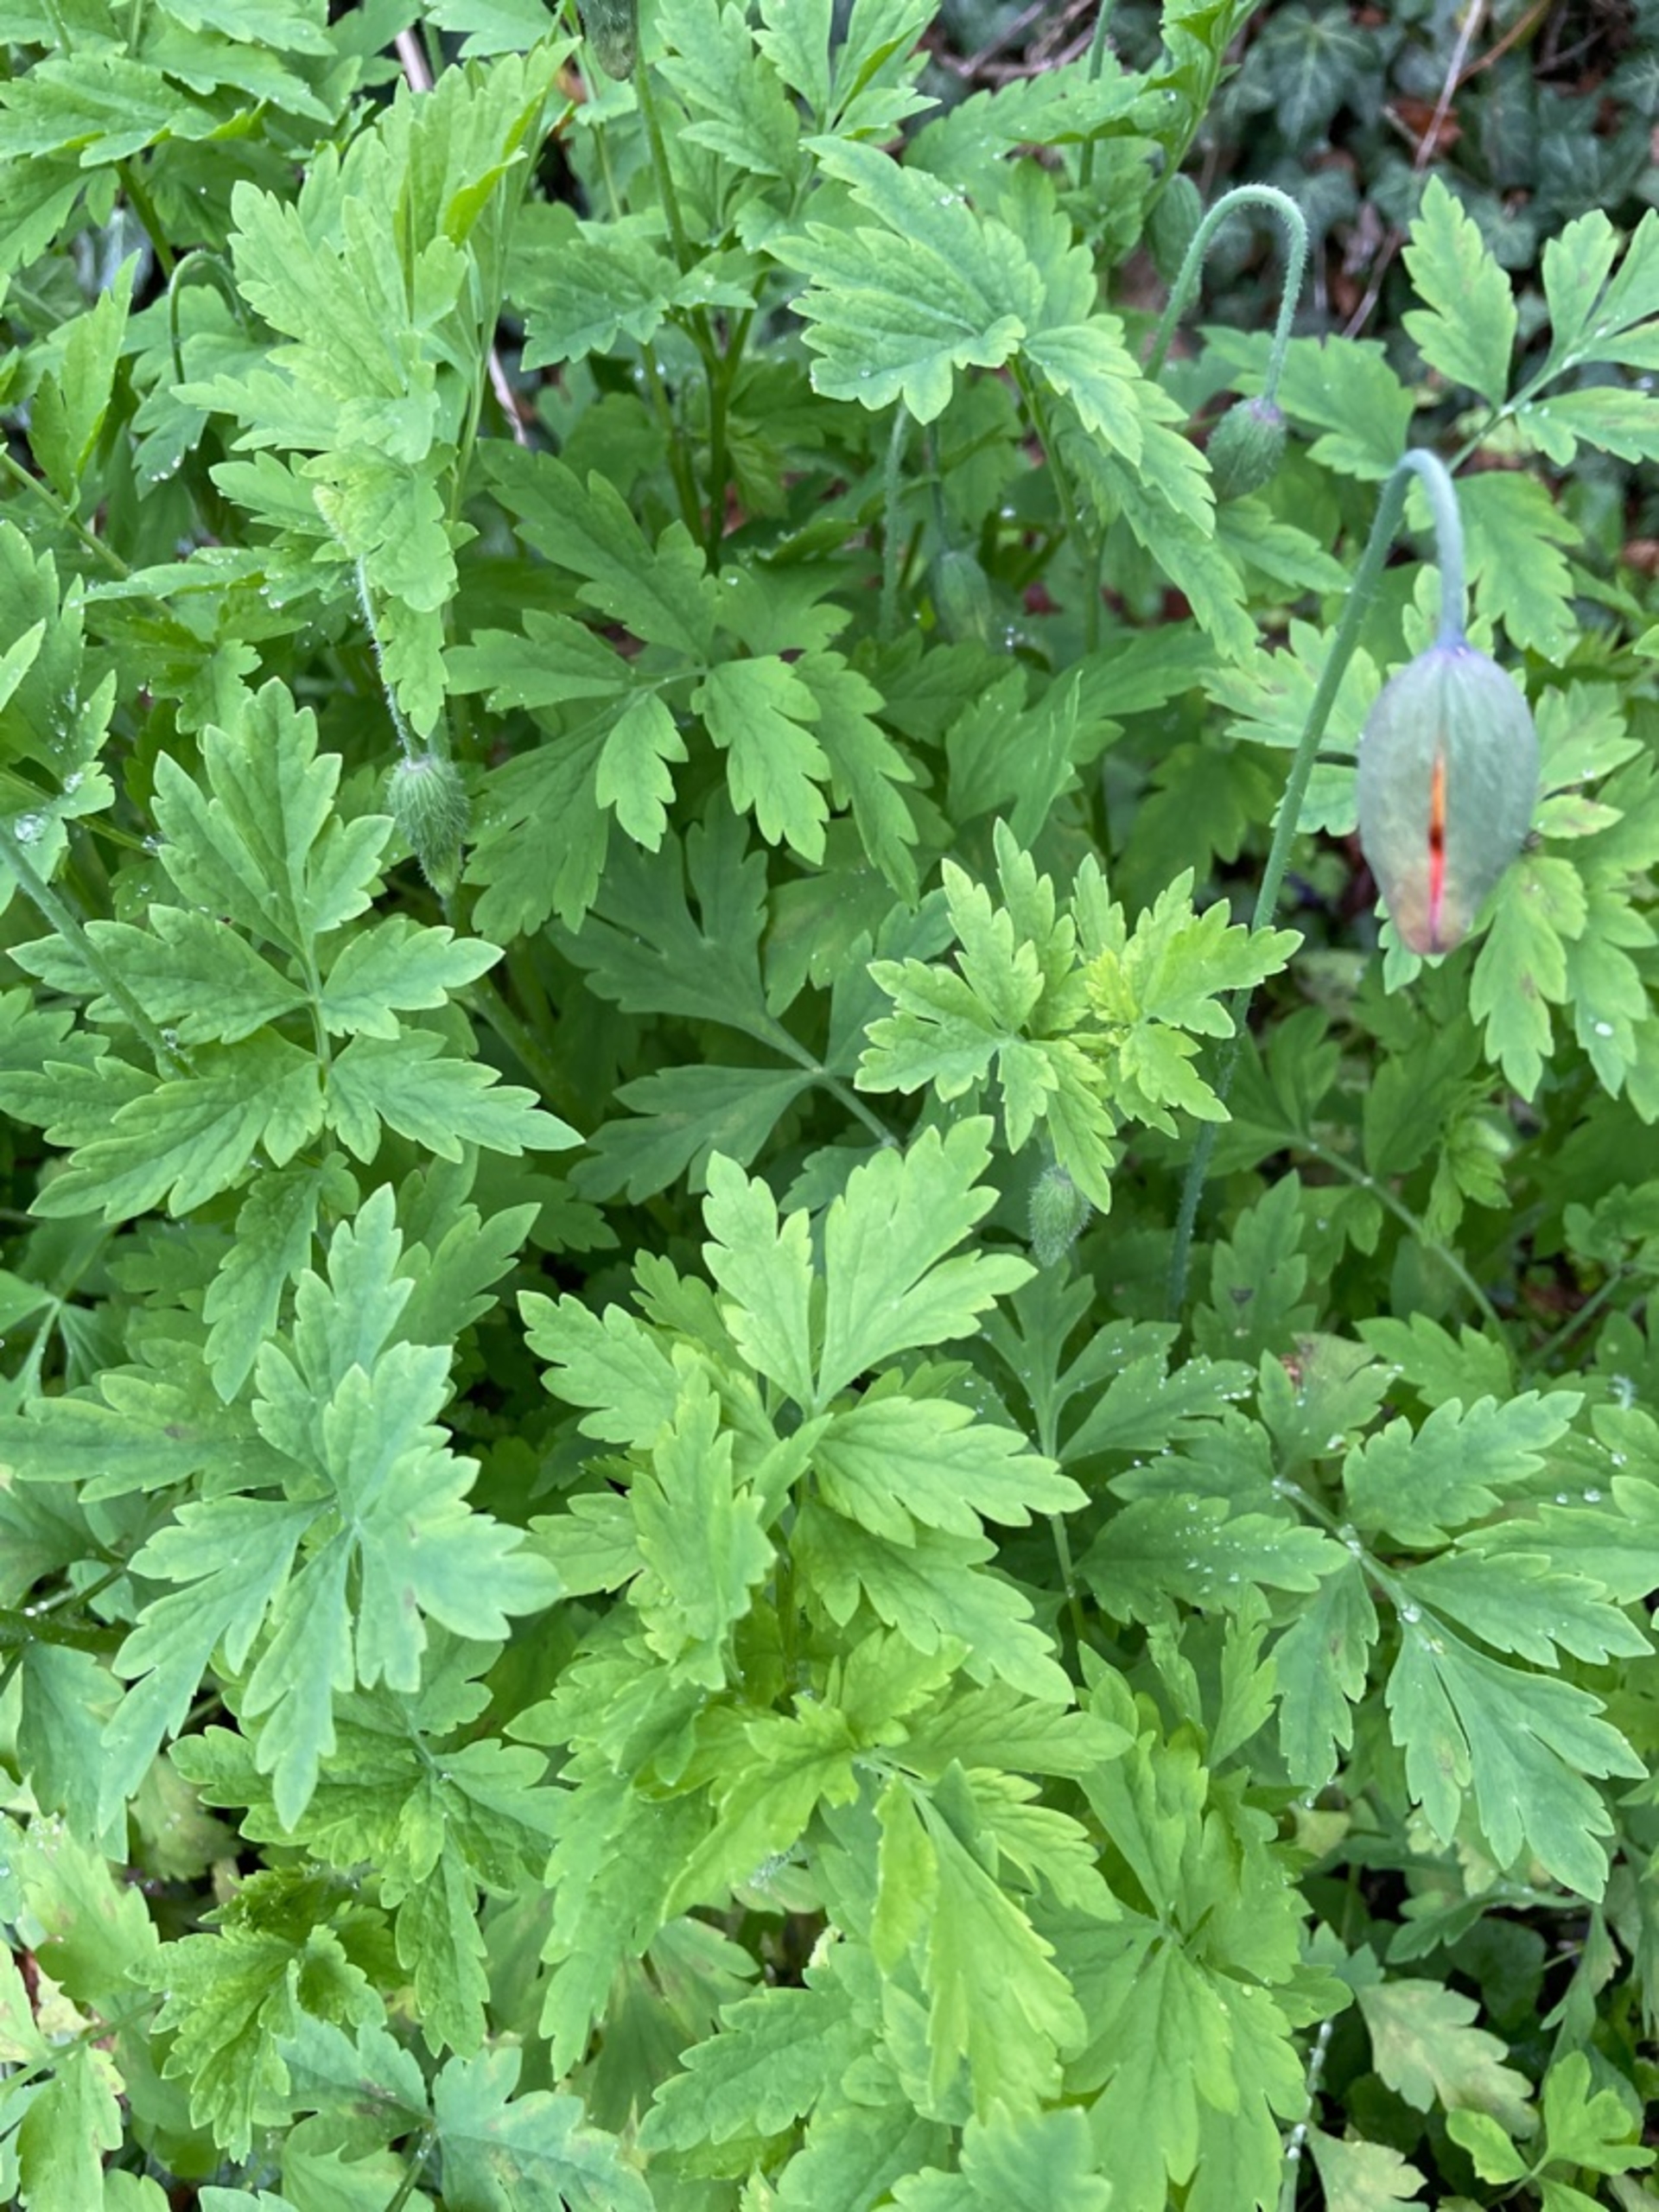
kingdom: Plantae
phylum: Tracheophyta
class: Magnoliopsida
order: Ranunculales
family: Papaveraceae
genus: Papaver
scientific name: Papaver cambricum
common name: Skov-valmue
